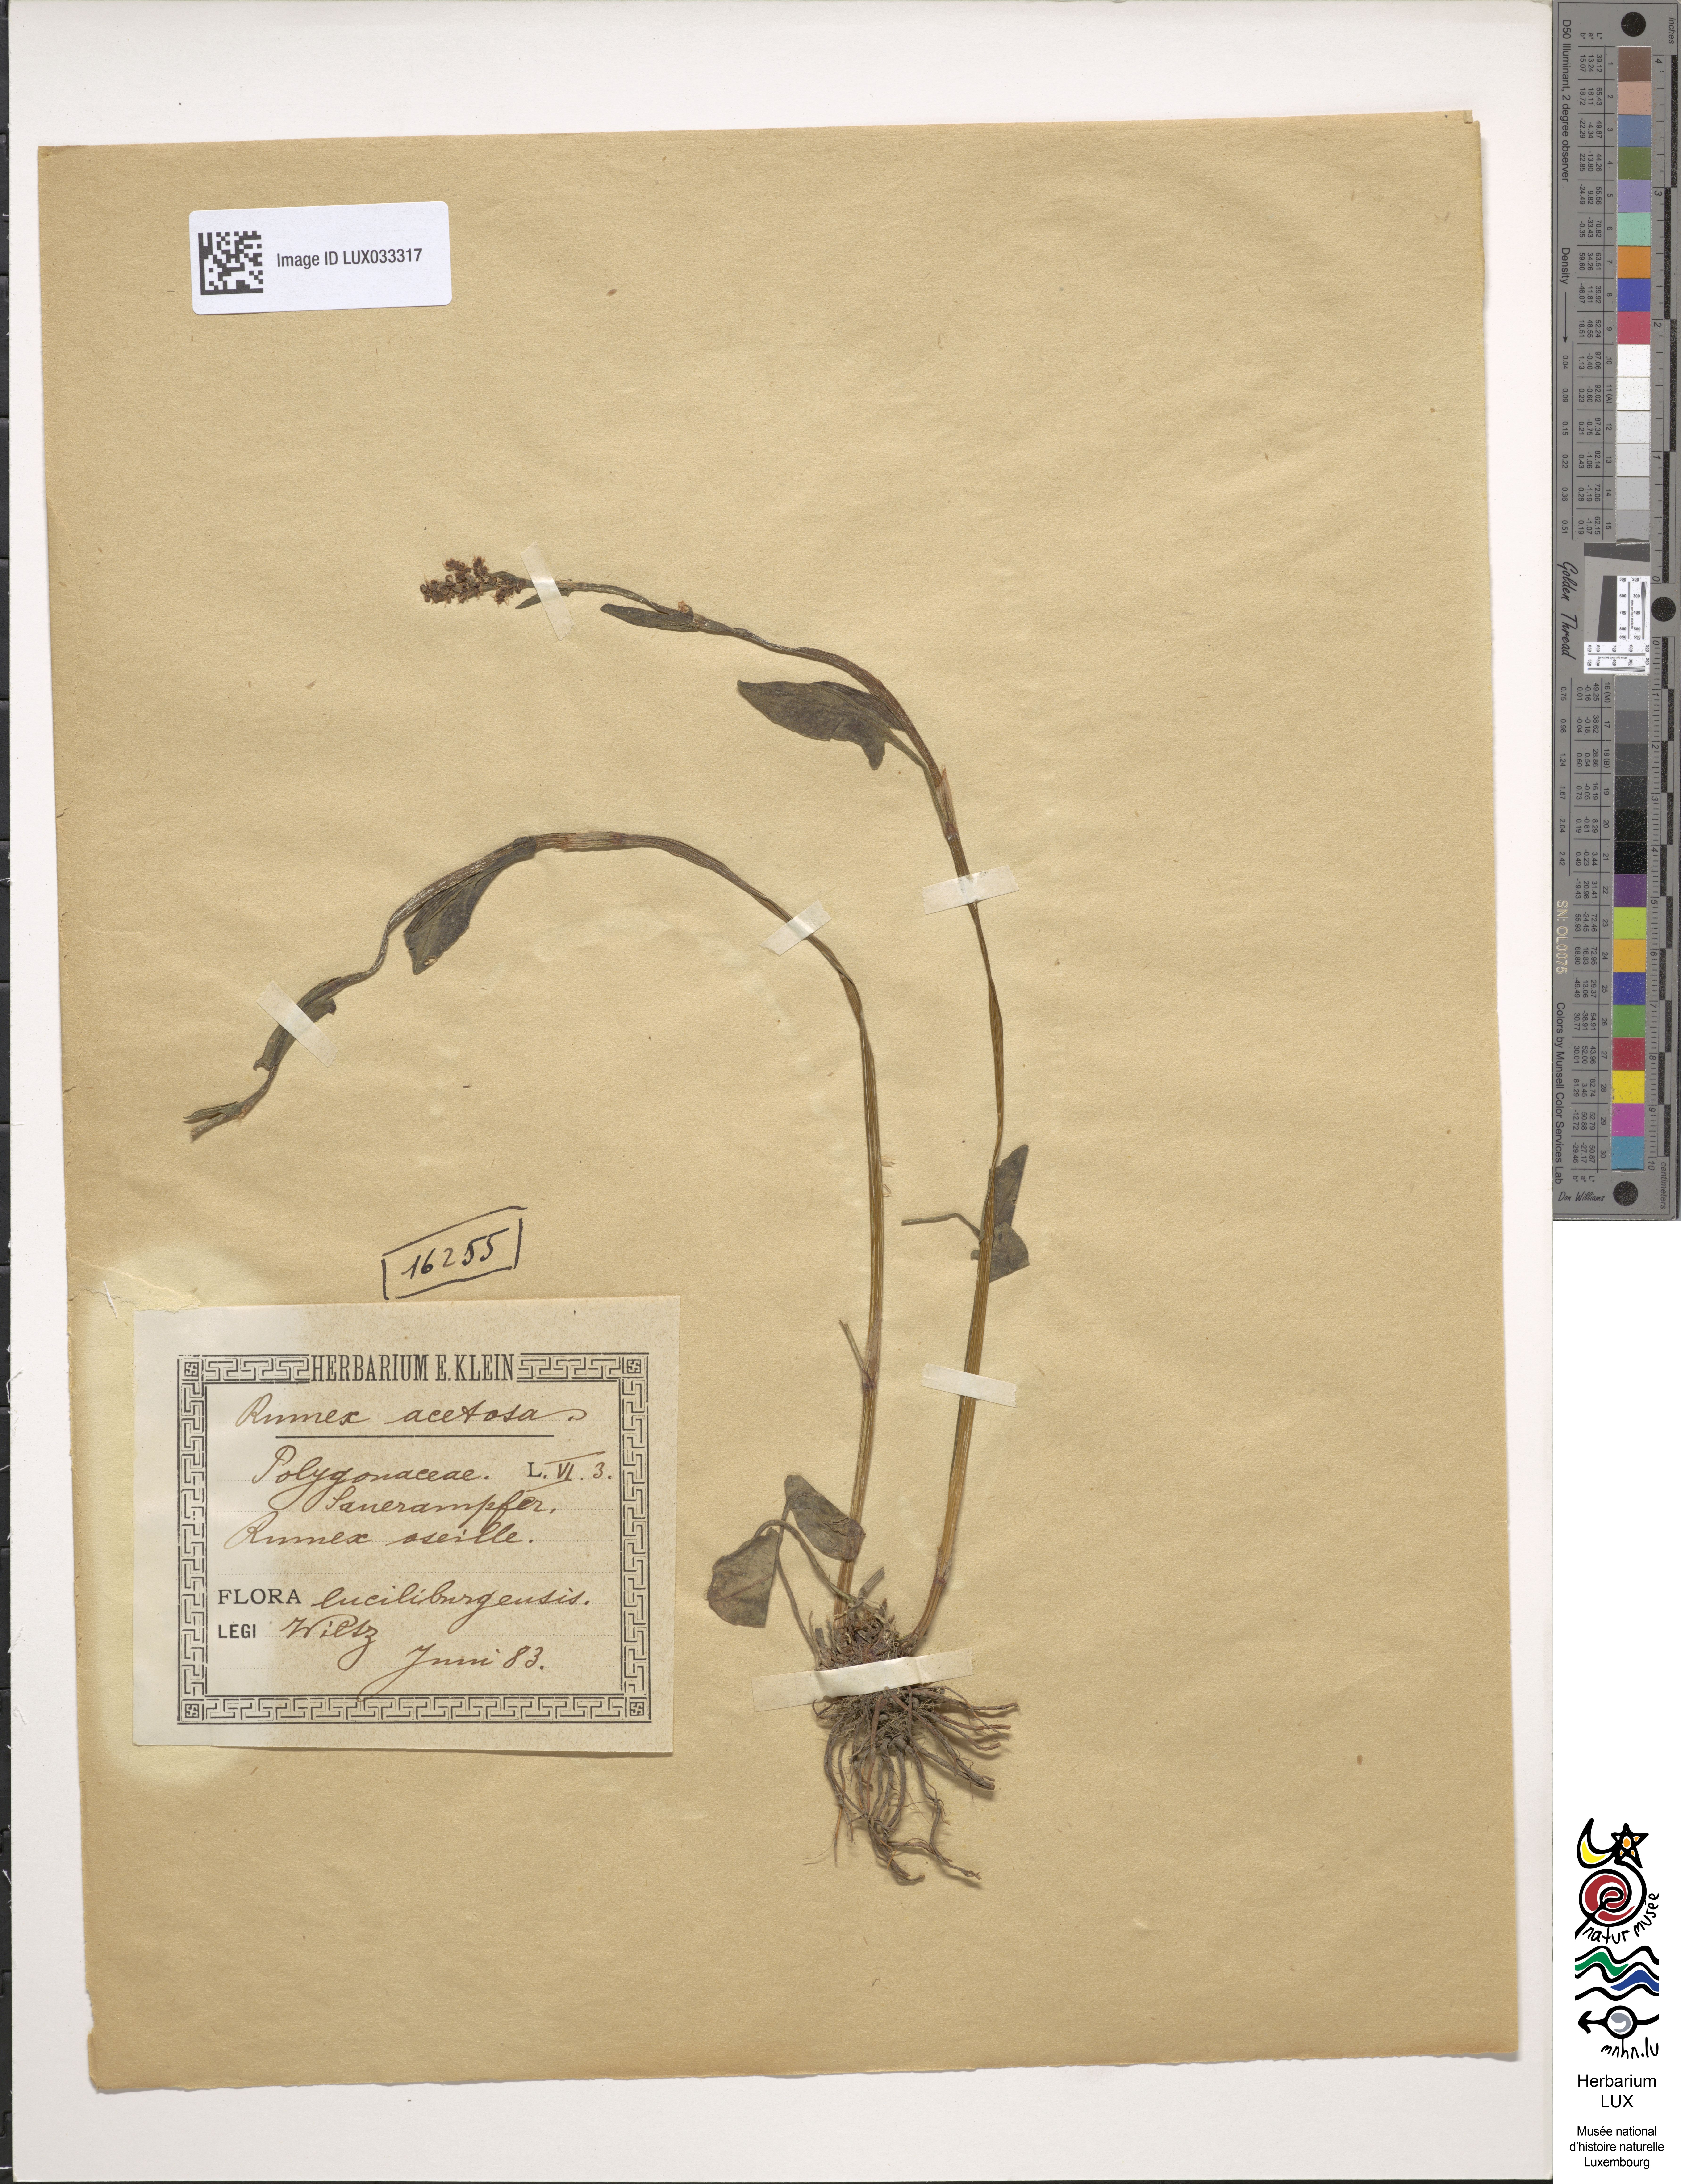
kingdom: Plantae
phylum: Tracheophyta
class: Magnoliopsida
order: Caryophyllales
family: Polygonaceae
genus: Rumex
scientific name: Rumex acetosa
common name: Garden sorrel
